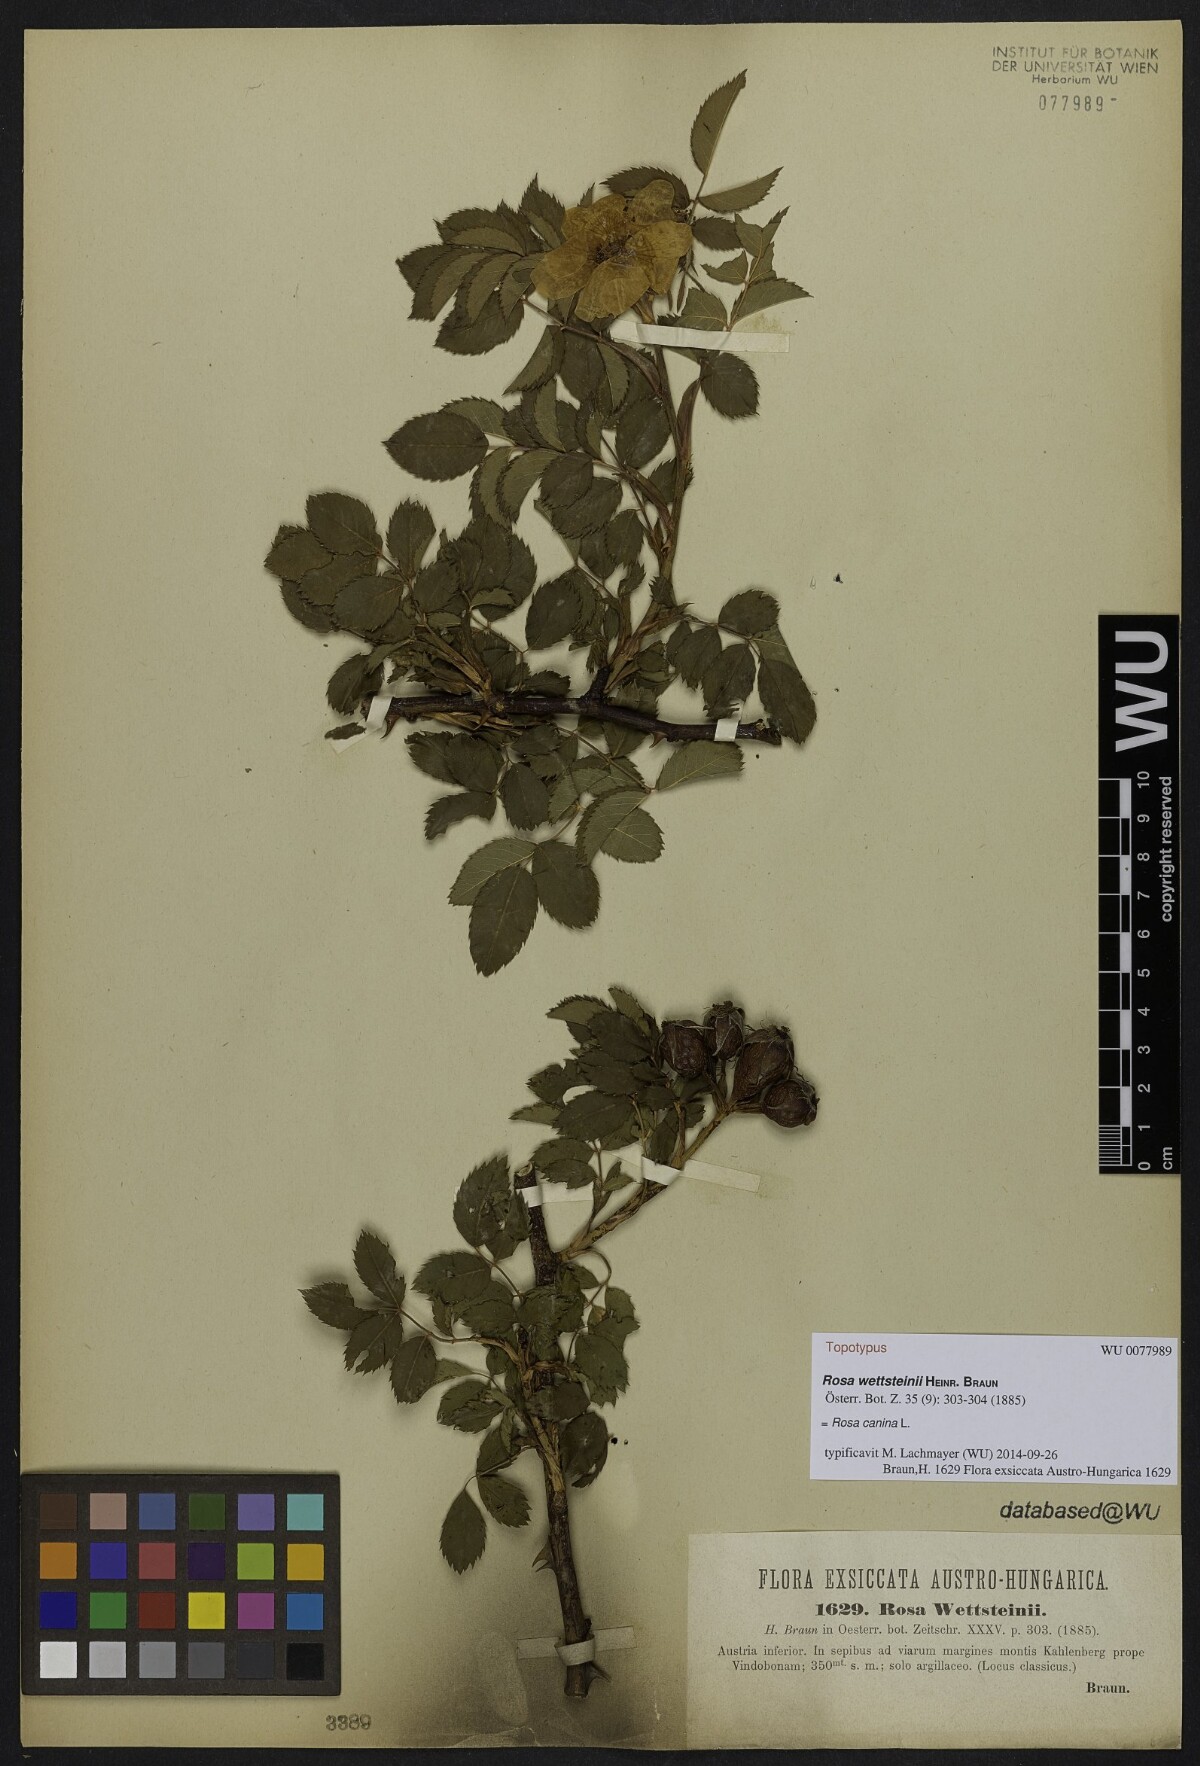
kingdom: Plantae
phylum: Tracheophyta
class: Magnoliopsida
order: Rosales
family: Rosaceae
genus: Rosa
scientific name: Rosa canina
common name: Dog rose
